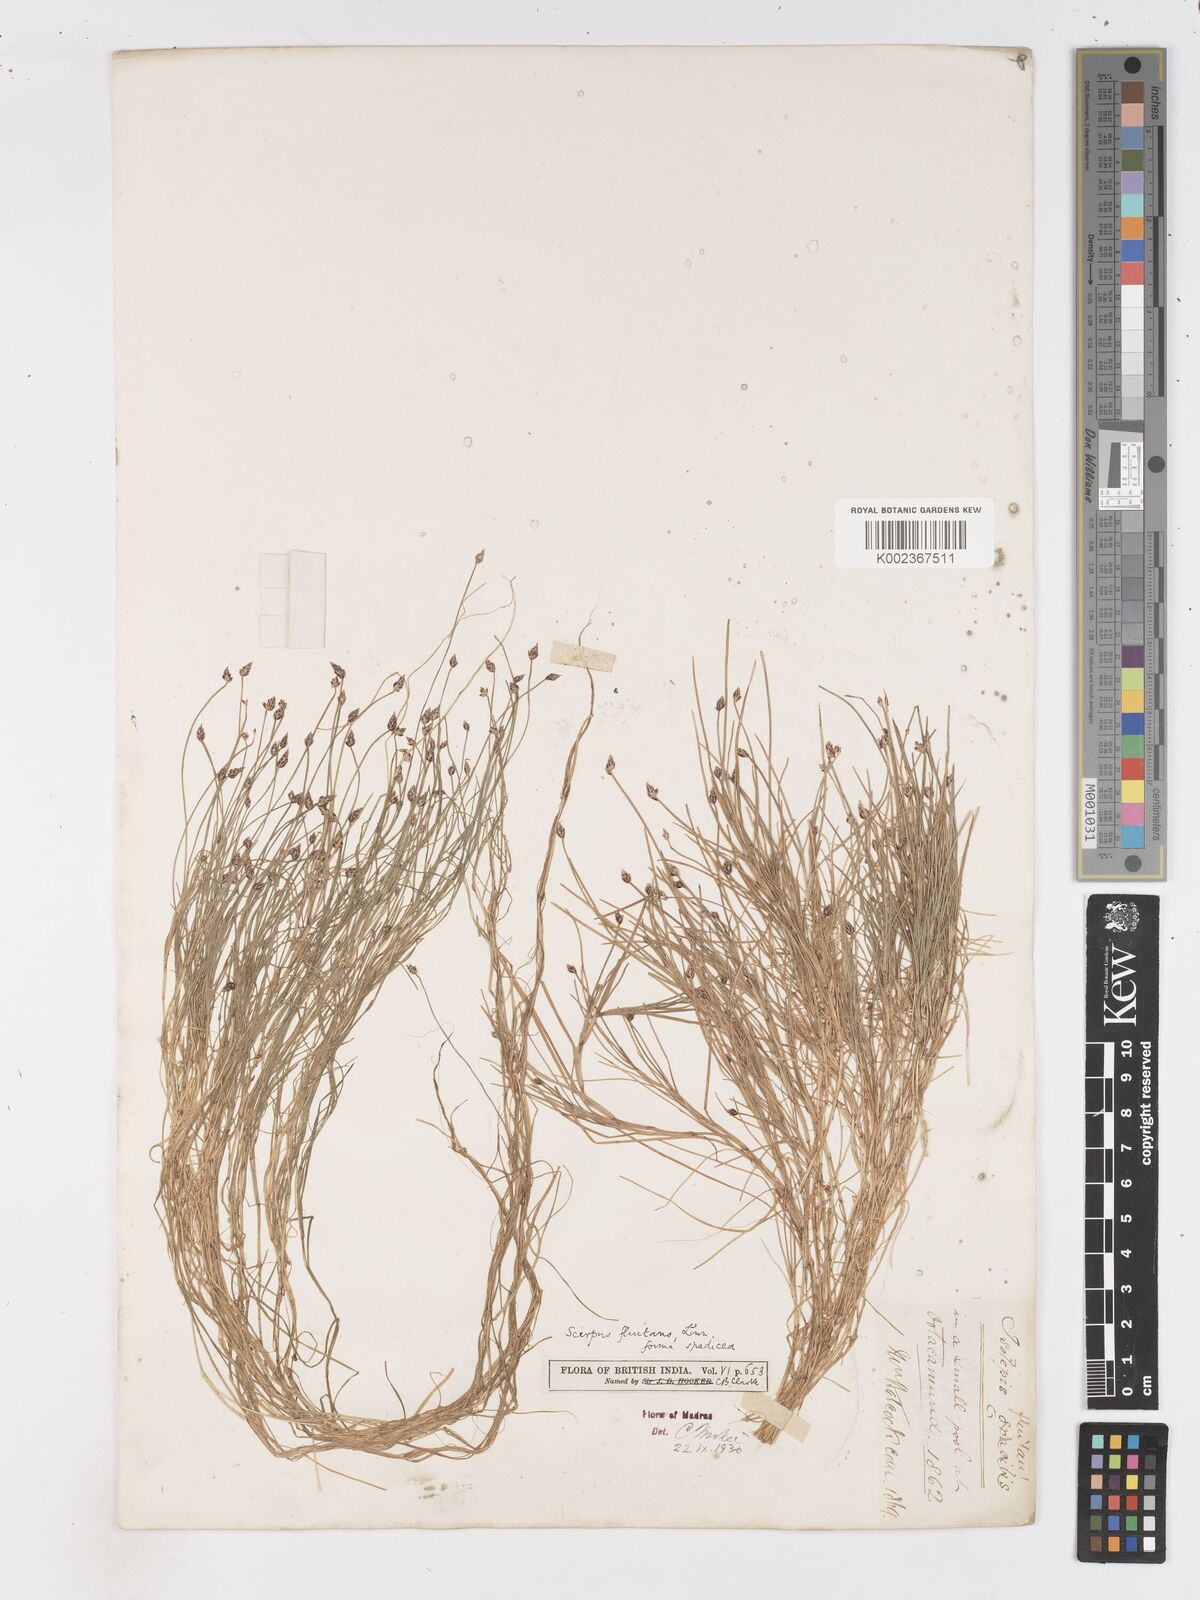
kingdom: Plantae
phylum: Tracheophyta
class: Liliopsida
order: Poales
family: Cyperaceae
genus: Isolepis
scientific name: Isolepis fluitans
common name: Floating club-rush
